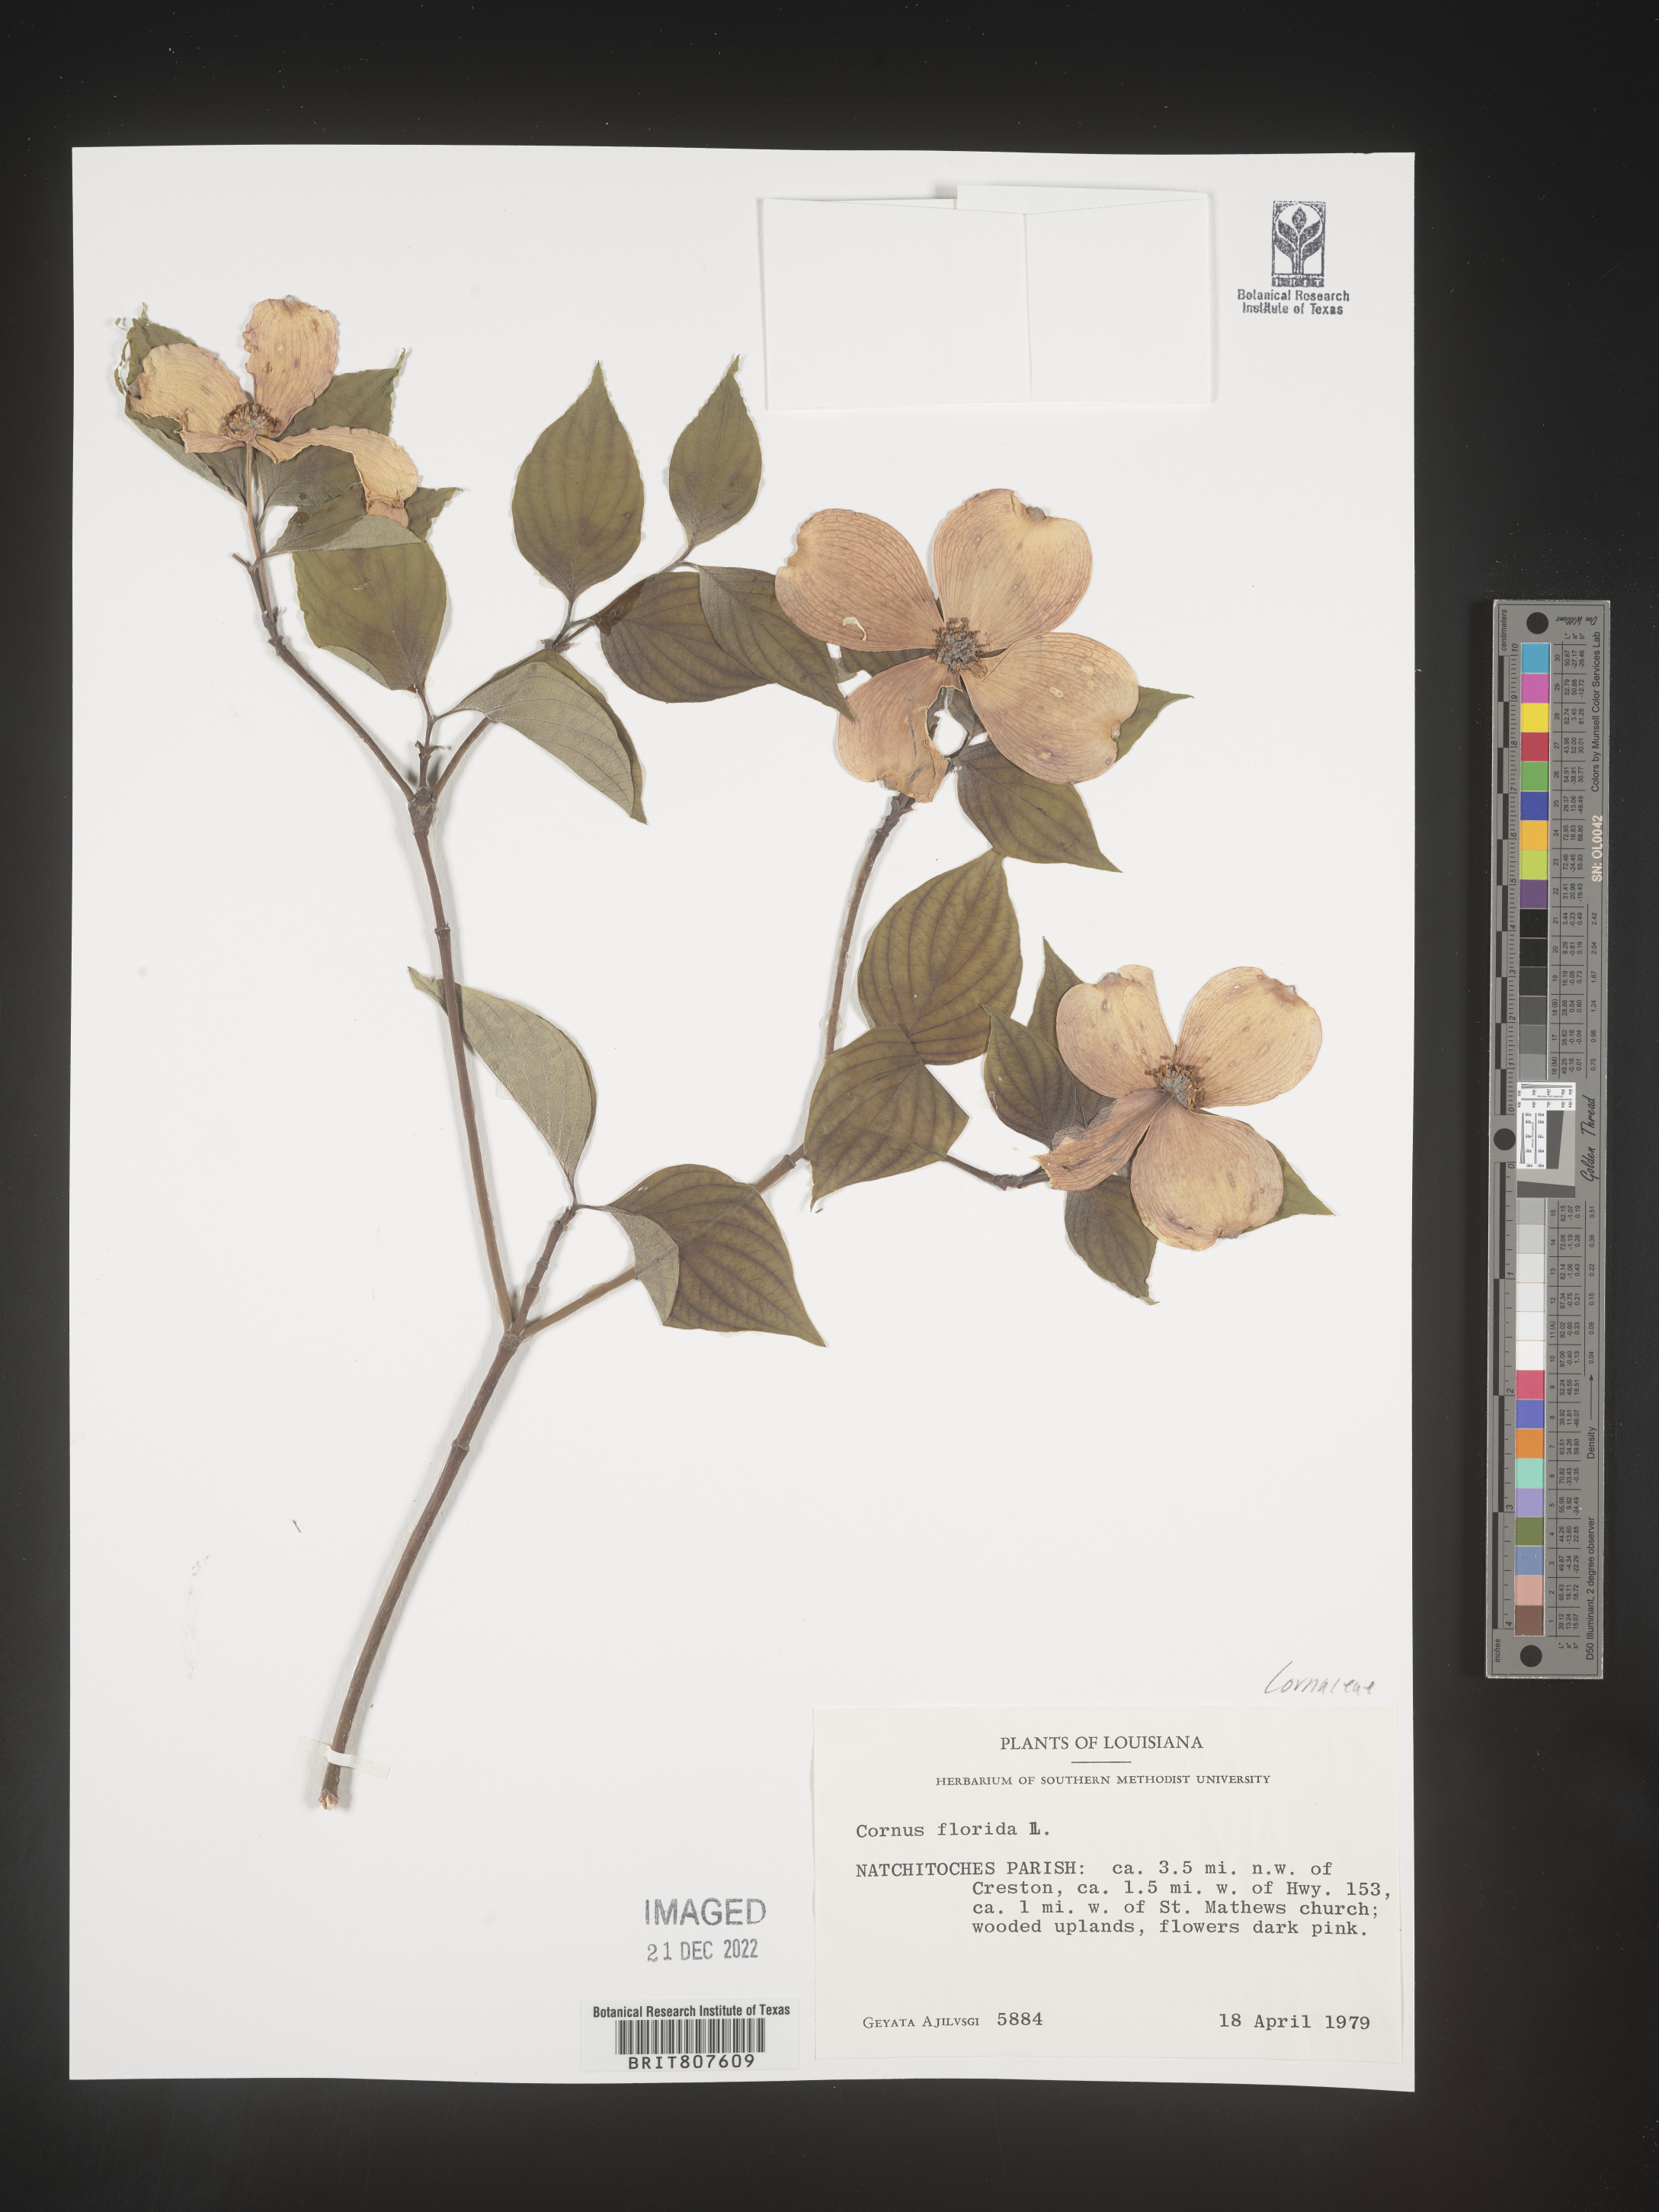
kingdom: Plantae
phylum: Tracheophyta
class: Magnoliopsida
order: Cornales
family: Cornaceae
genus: Cornus
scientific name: Cornus florida
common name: Flowering dogwood
